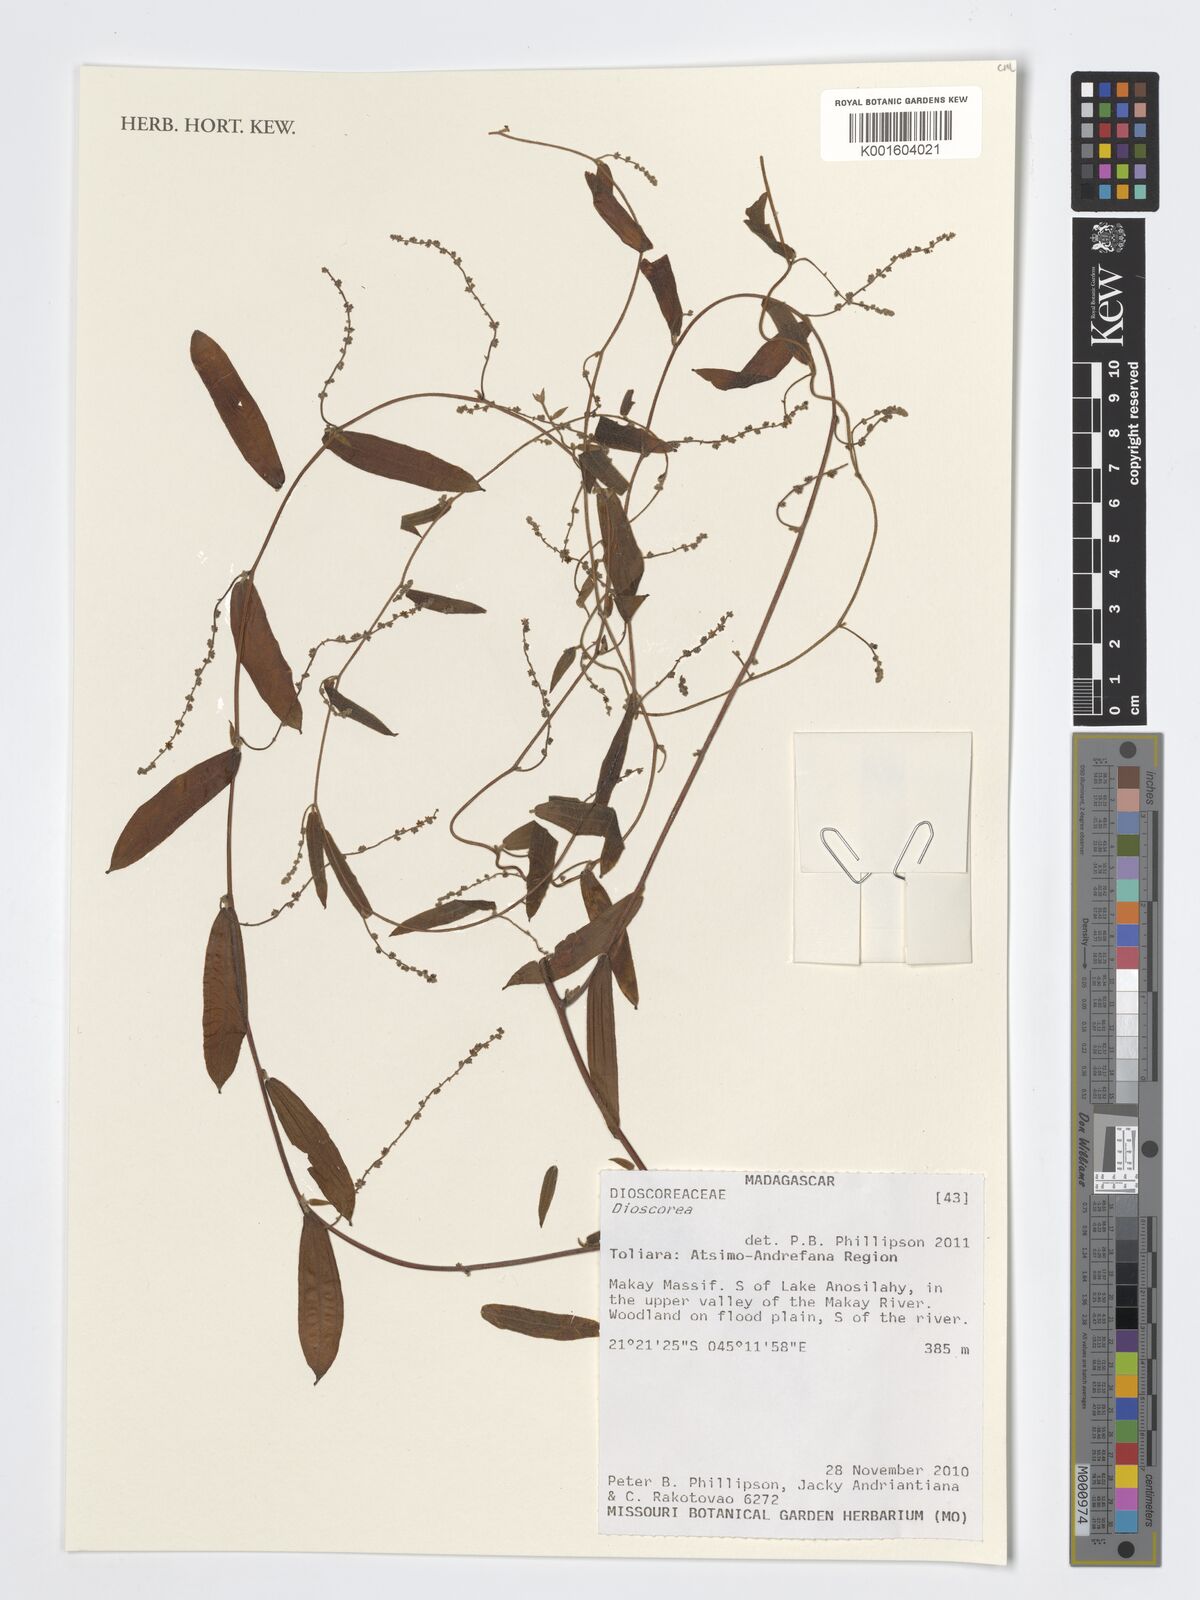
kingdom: Plantae
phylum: Tracheophyta
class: Liliopsida
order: Dioscoreales
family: Dioscoreaceae
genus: Dioscorea
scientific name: Dioscorea
